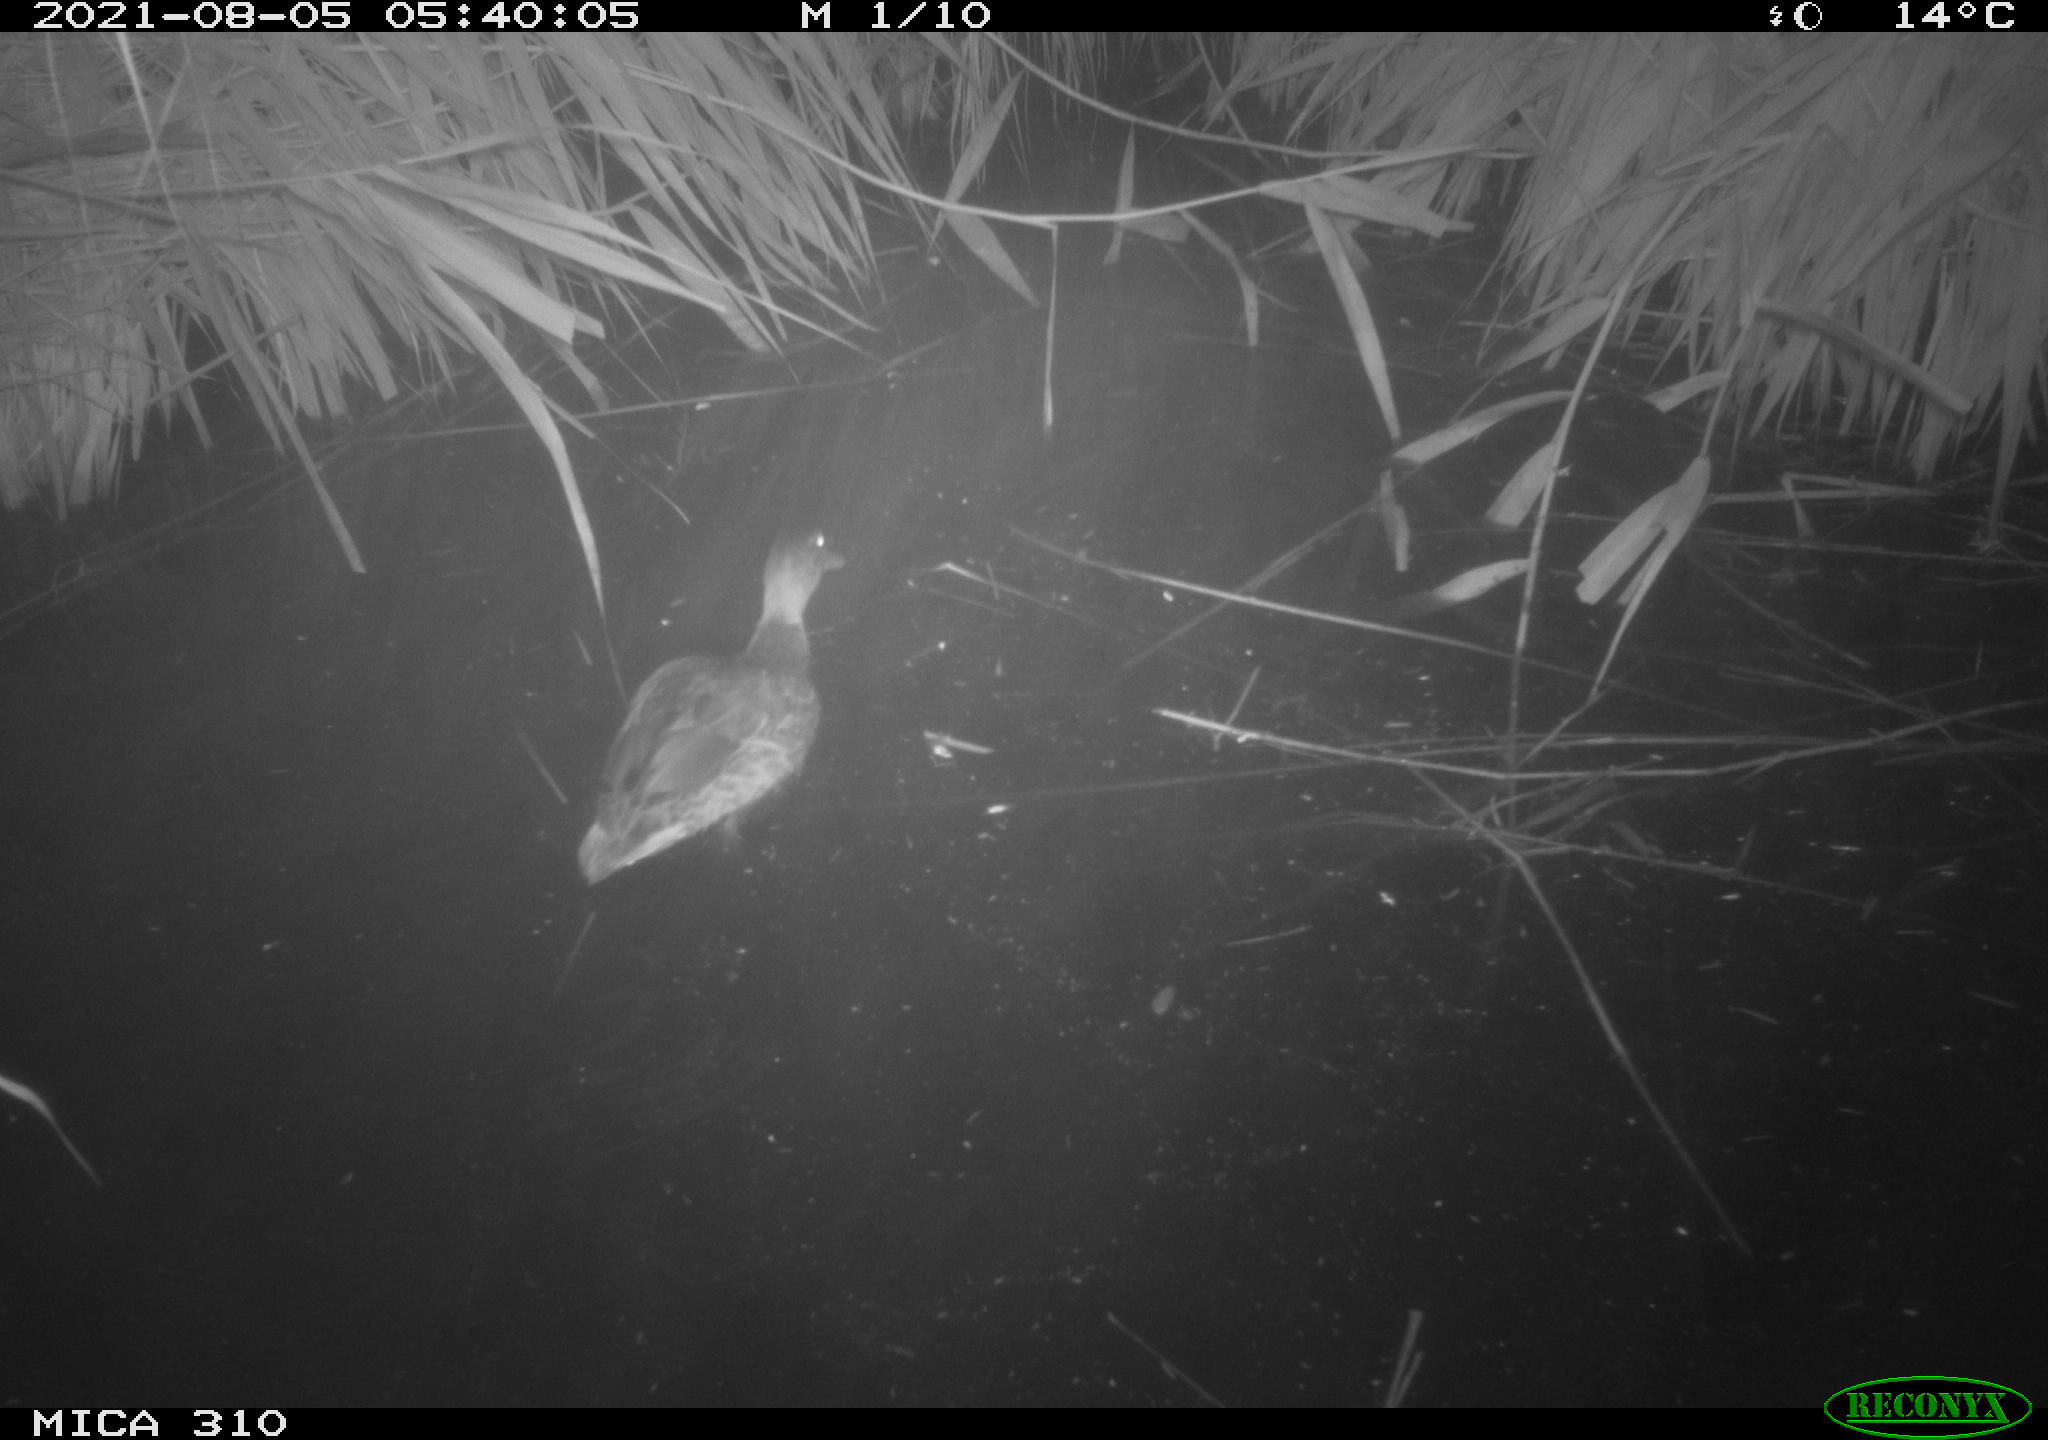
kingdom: Animalia
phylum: Chordata
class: Aves
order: Anseriformes
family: Anatidae
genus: Anas
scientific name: Anas platyrhynchos
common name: Mallard
